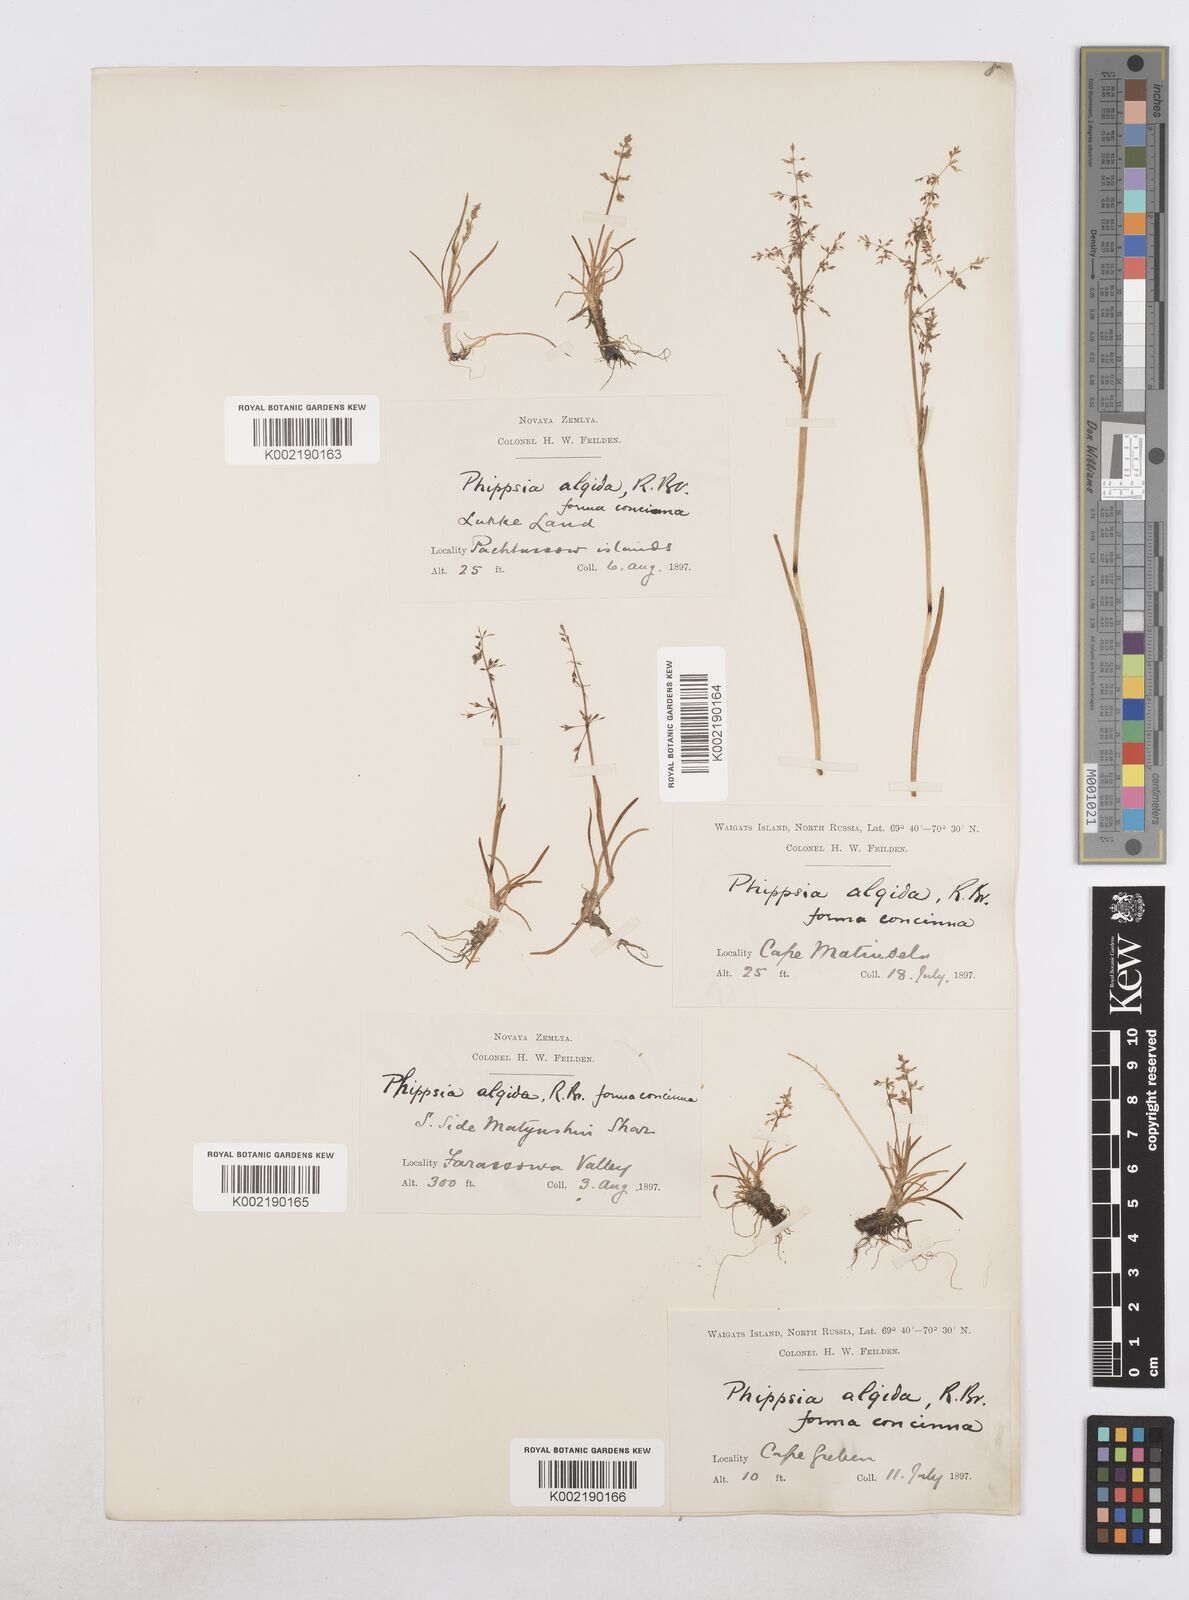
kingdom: Plantae
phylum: Tracheophyta
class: Liliopsida
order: Poales
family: Poaceae
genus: Phippsia
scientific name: Phippsia concinna
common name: Snowgrass
